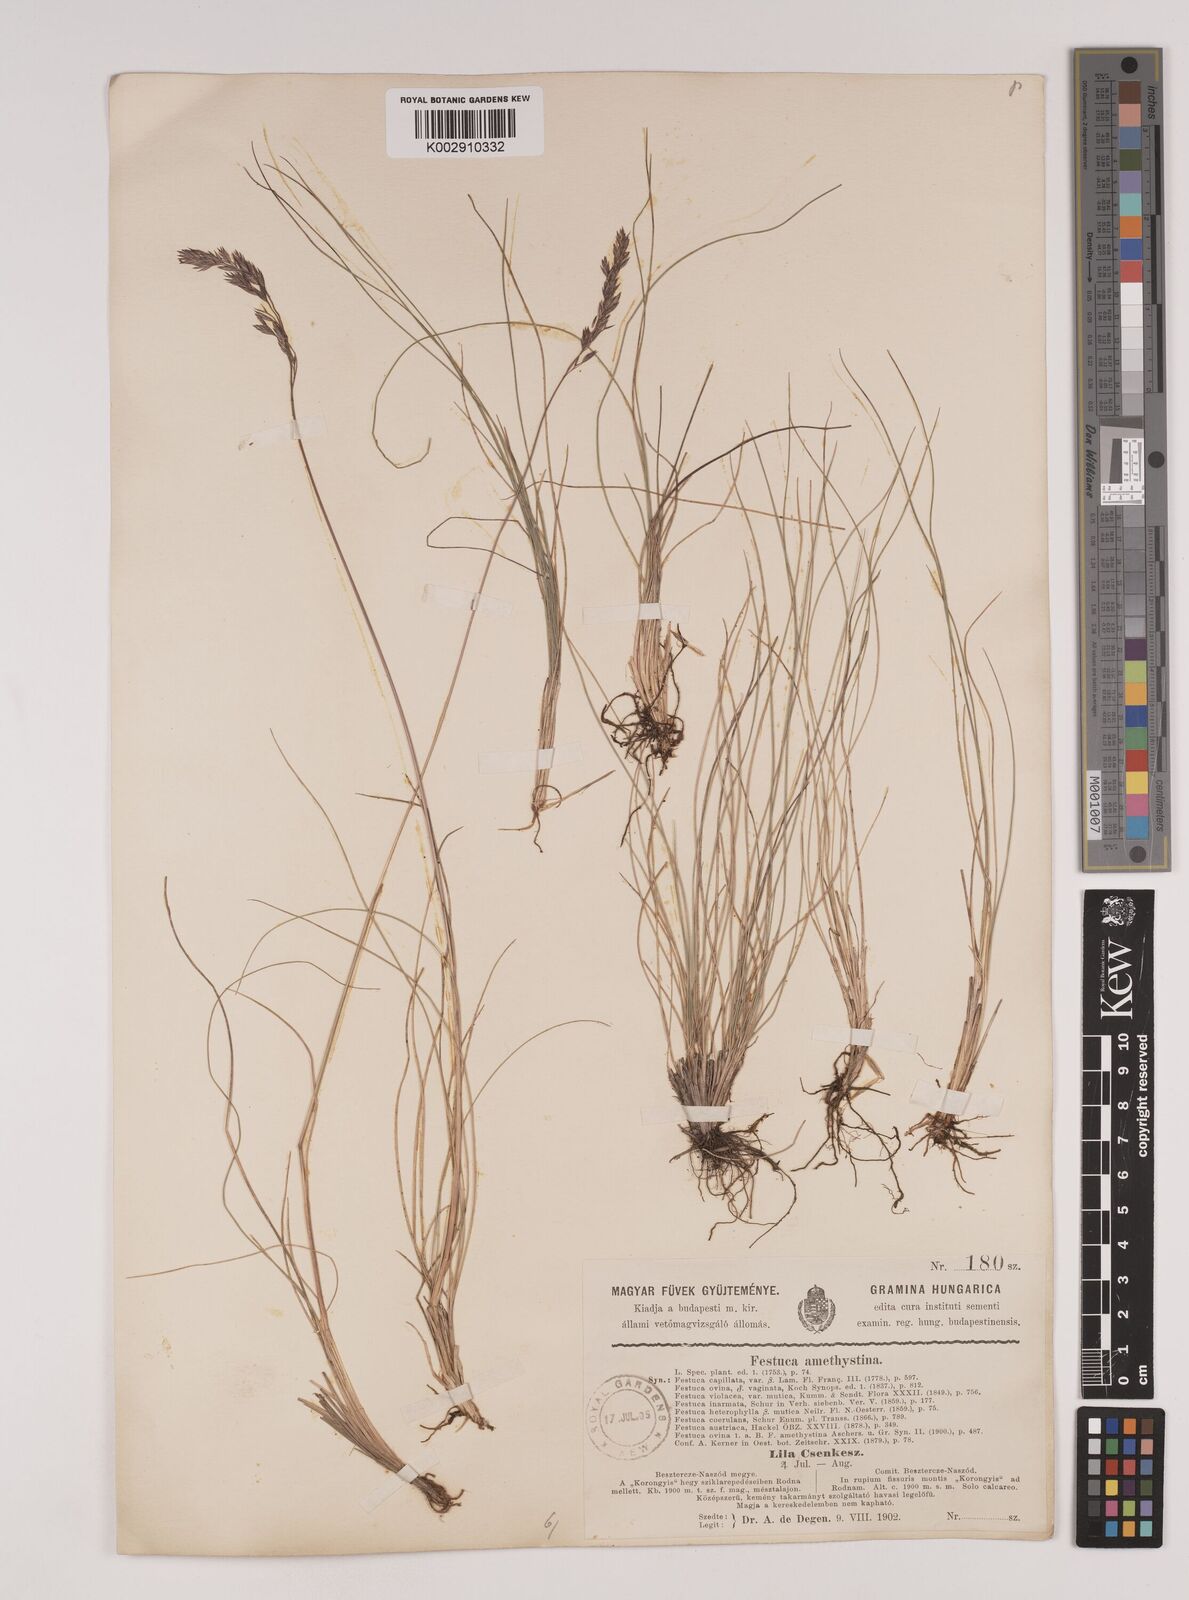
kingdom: Plantae
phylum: Tracheophyta
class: Liliopsida
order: Poales
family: Poaceae
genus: Festuca
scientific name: Festuca amethystina
